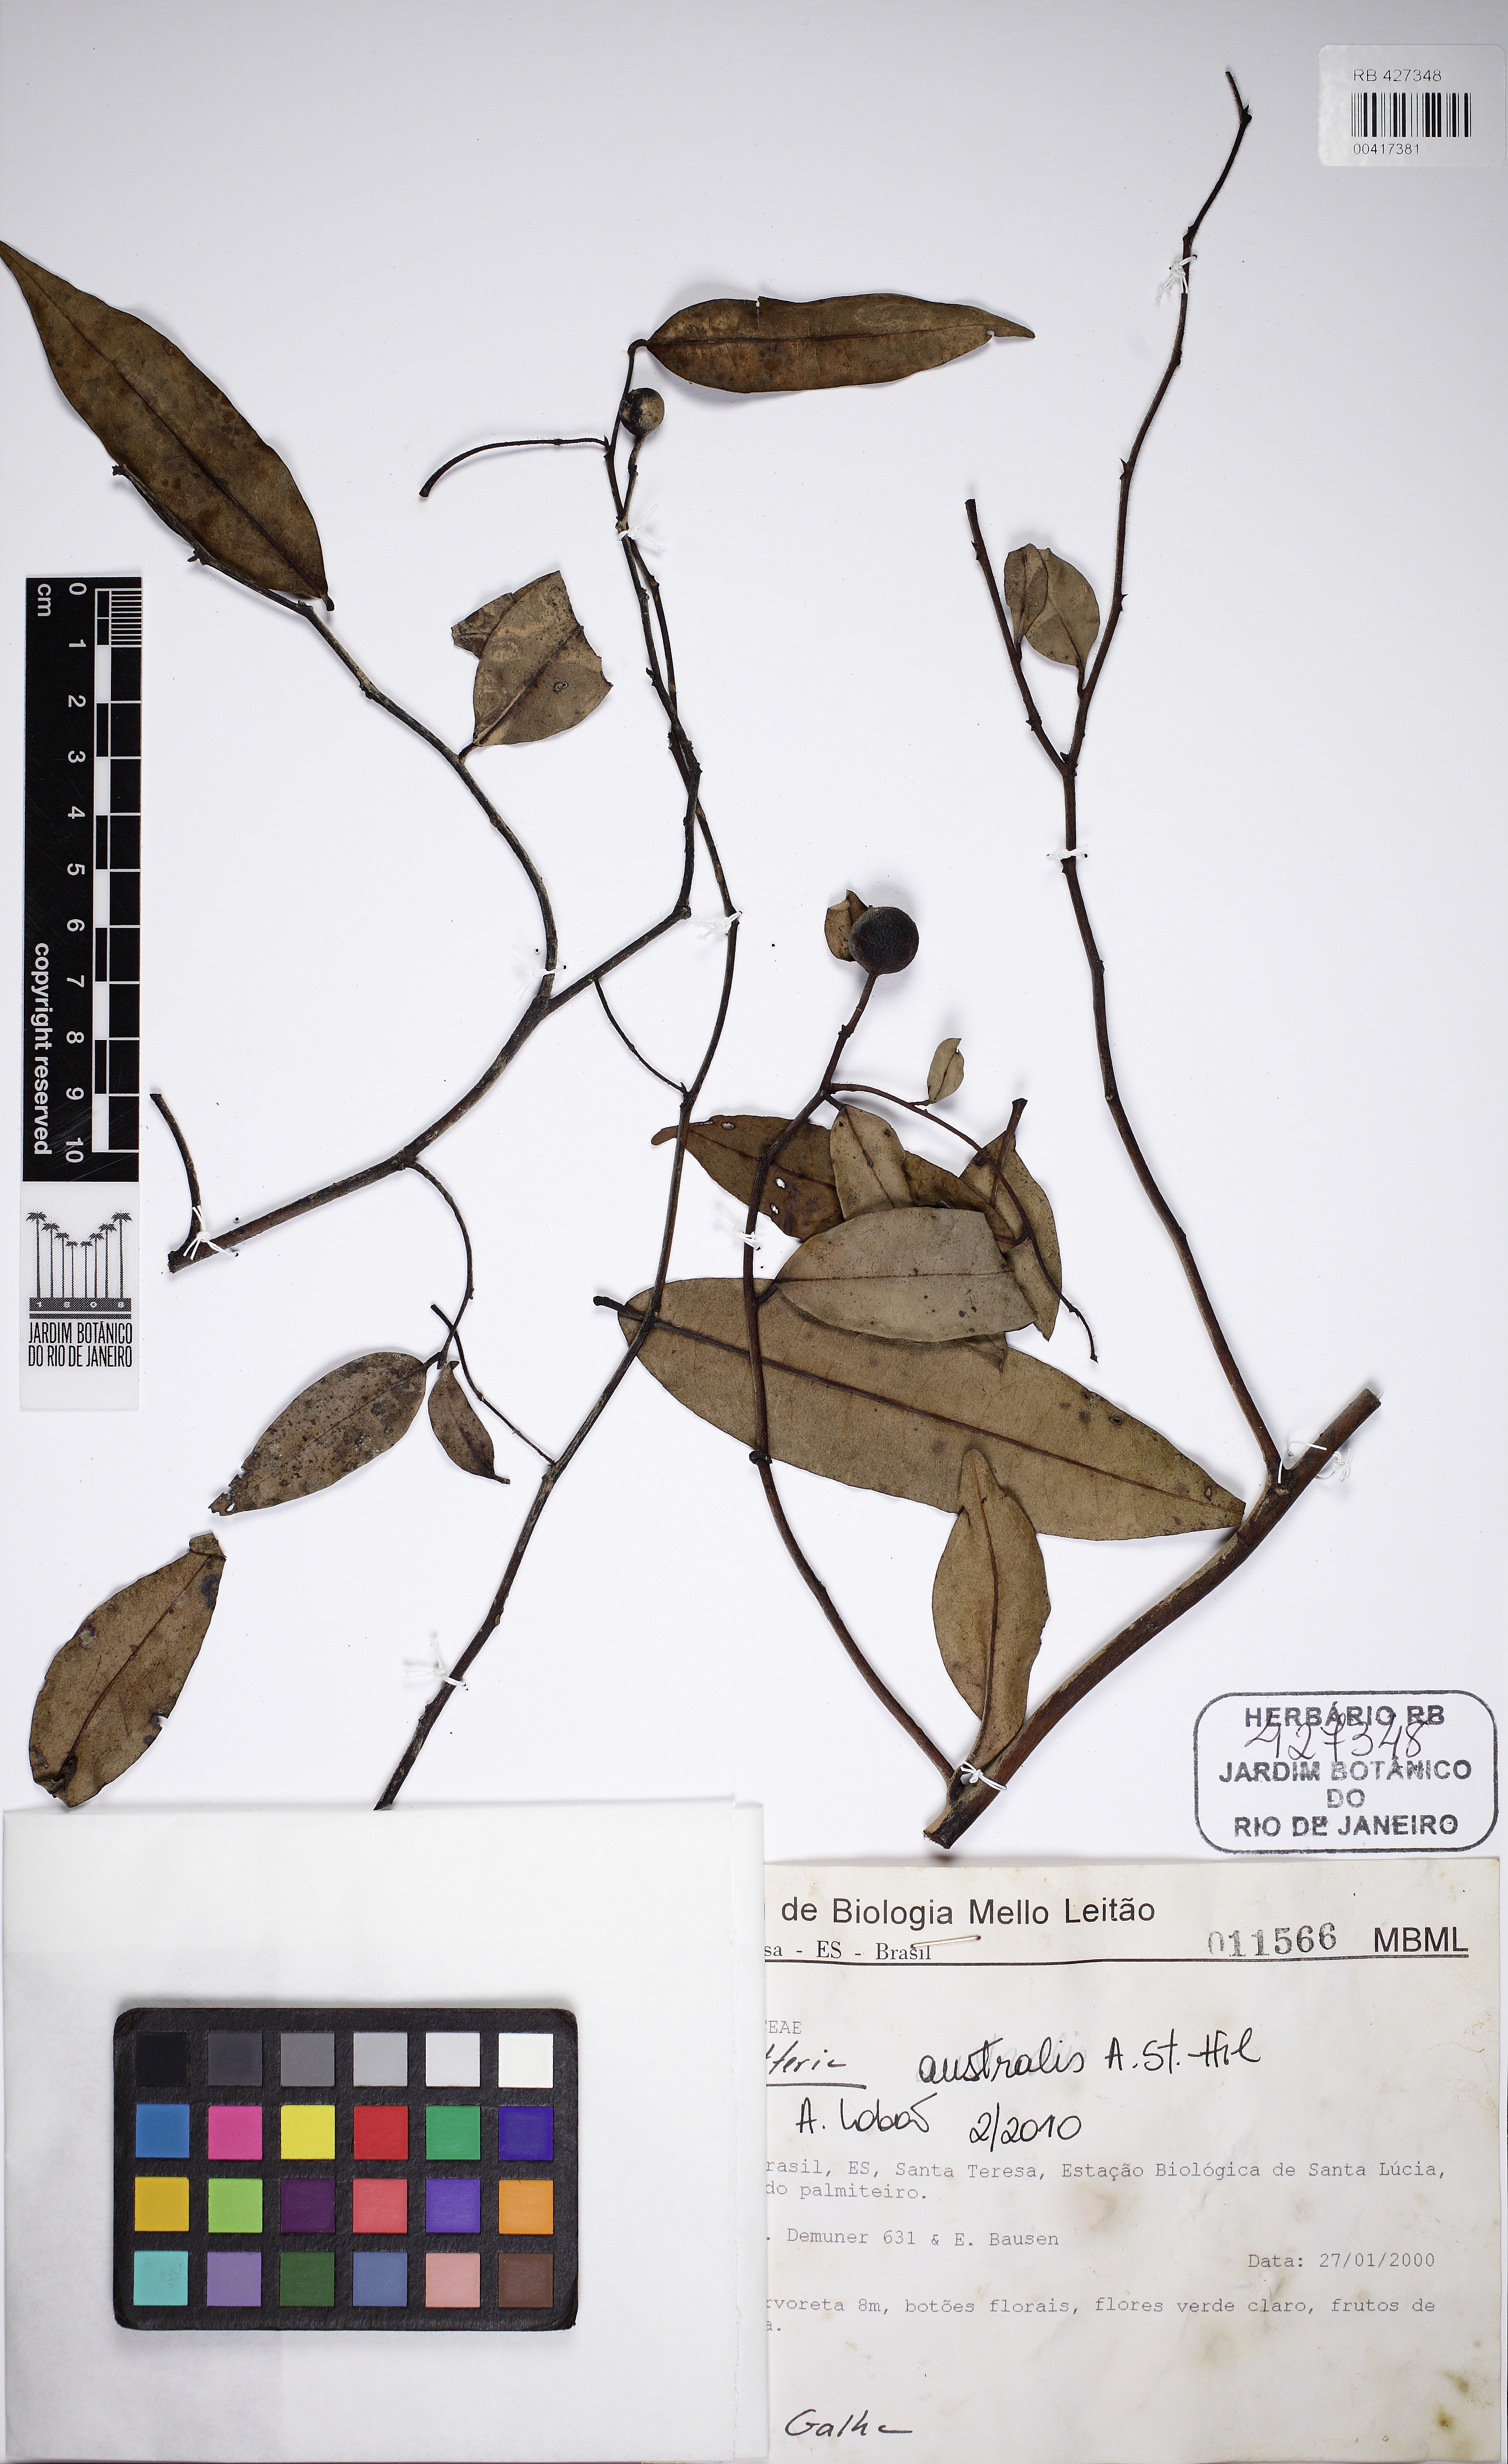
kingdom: Plantae
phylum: Tracheophyta
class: Magnoliopsida
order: Magnoliales
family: Annonaceae
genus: Guatteria
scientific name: Guatteria australis
